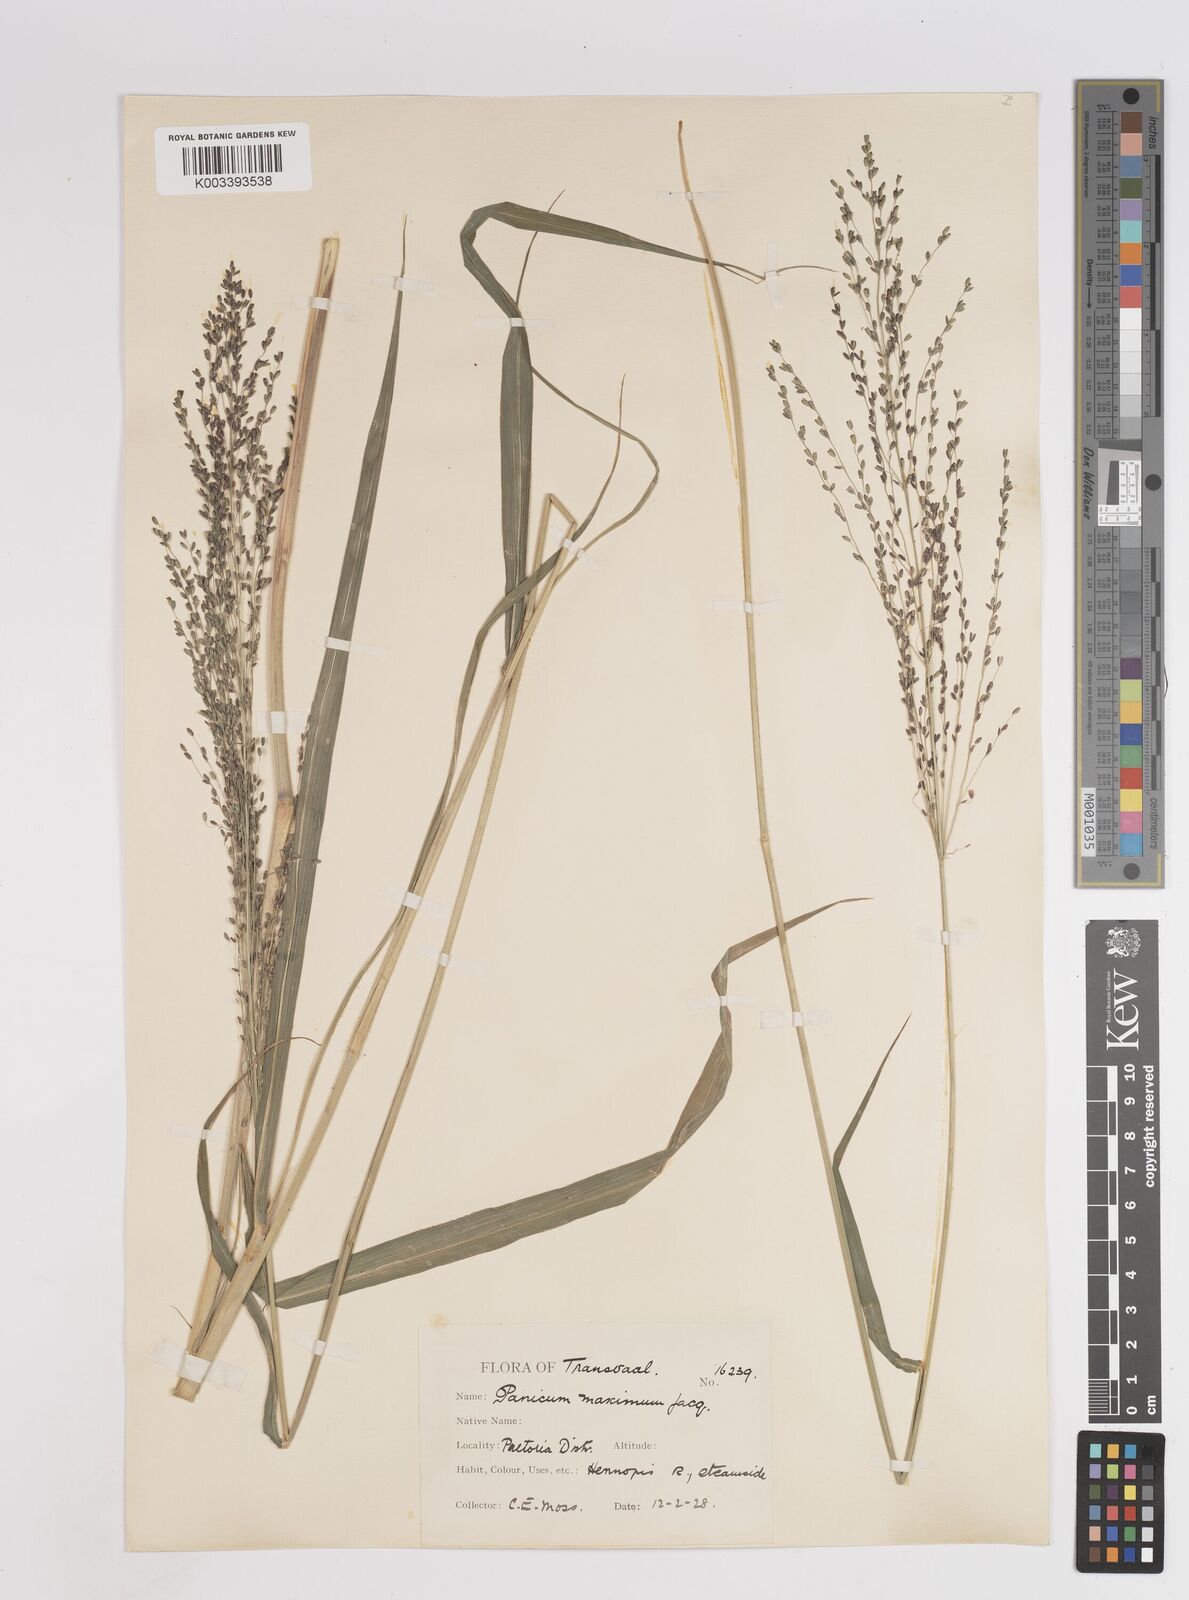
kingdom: Plantae
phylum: Tracheophyta
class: Liliopsida
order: Poales
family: Poaceae
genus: Megathyrsus
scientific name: Megathyrsus maximus
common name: Guineagrass
